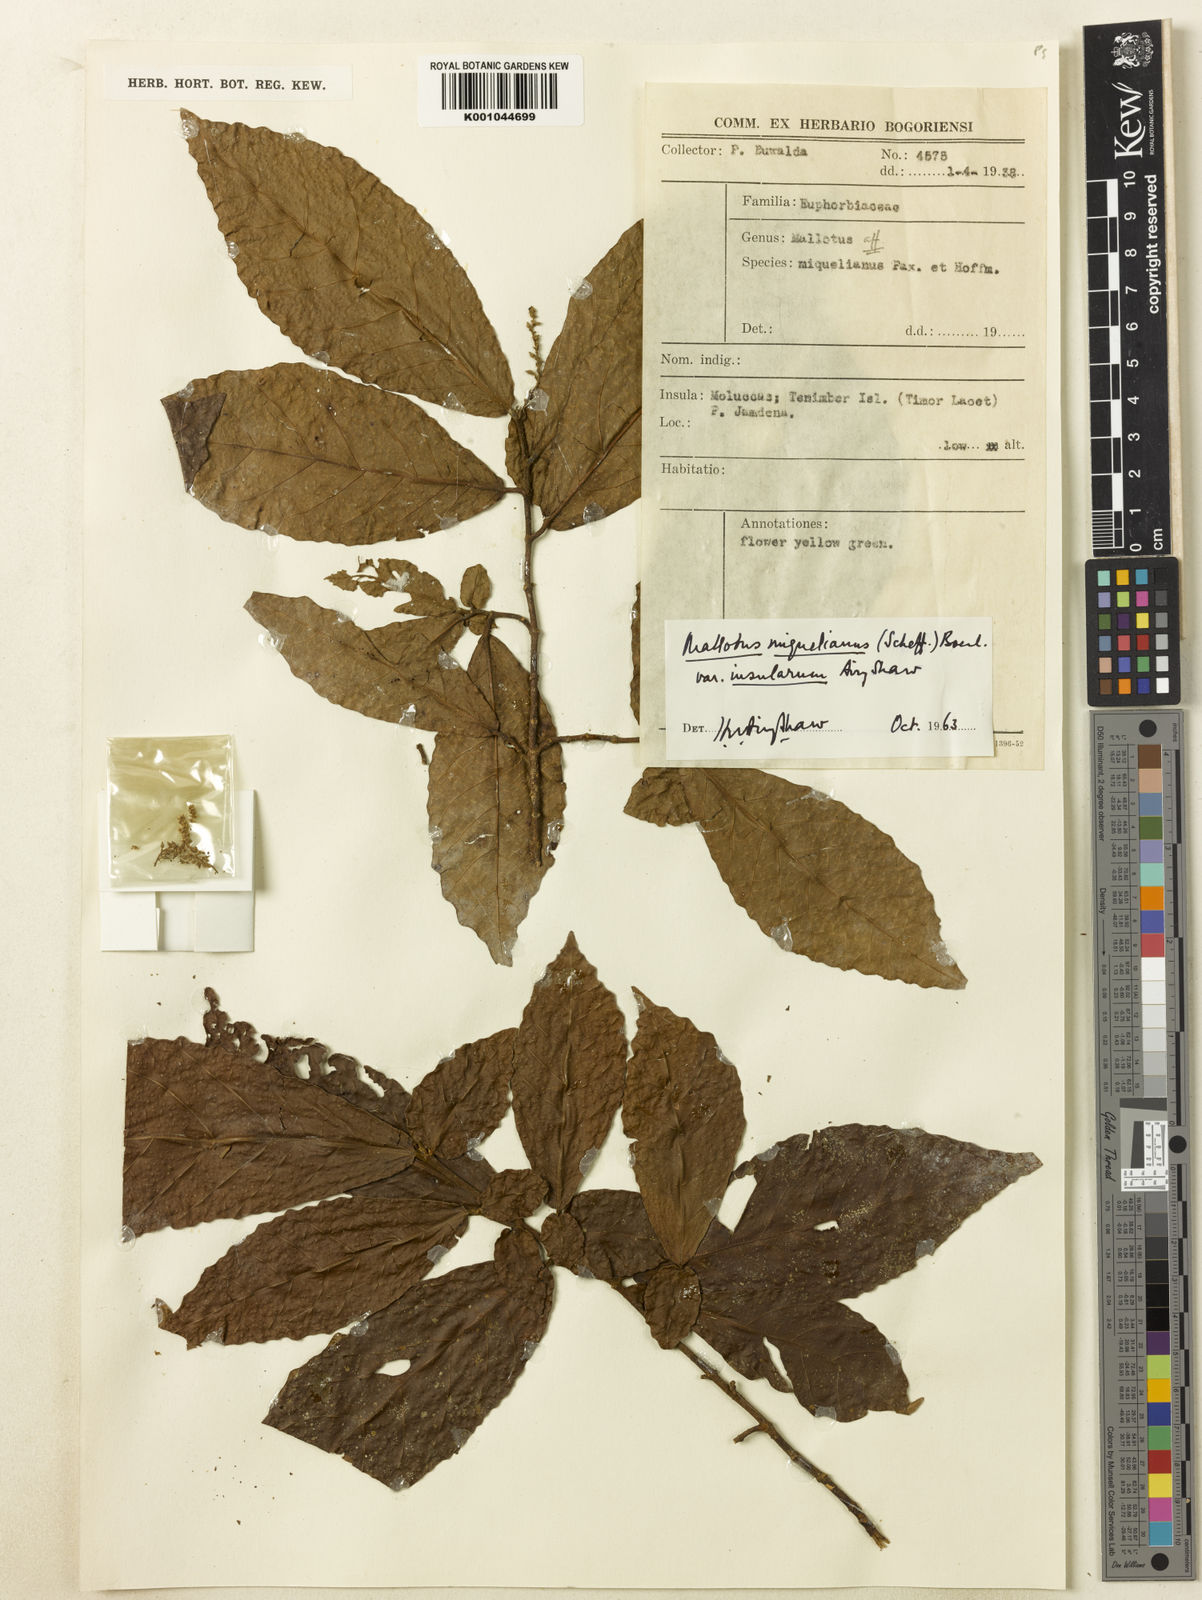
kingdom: Plantae
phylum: Tracheophyta
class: Magnoliopsida
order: Malpighiales
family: Euphorbiaceae
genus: Mallotus
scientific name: Mallotus miquelianus
